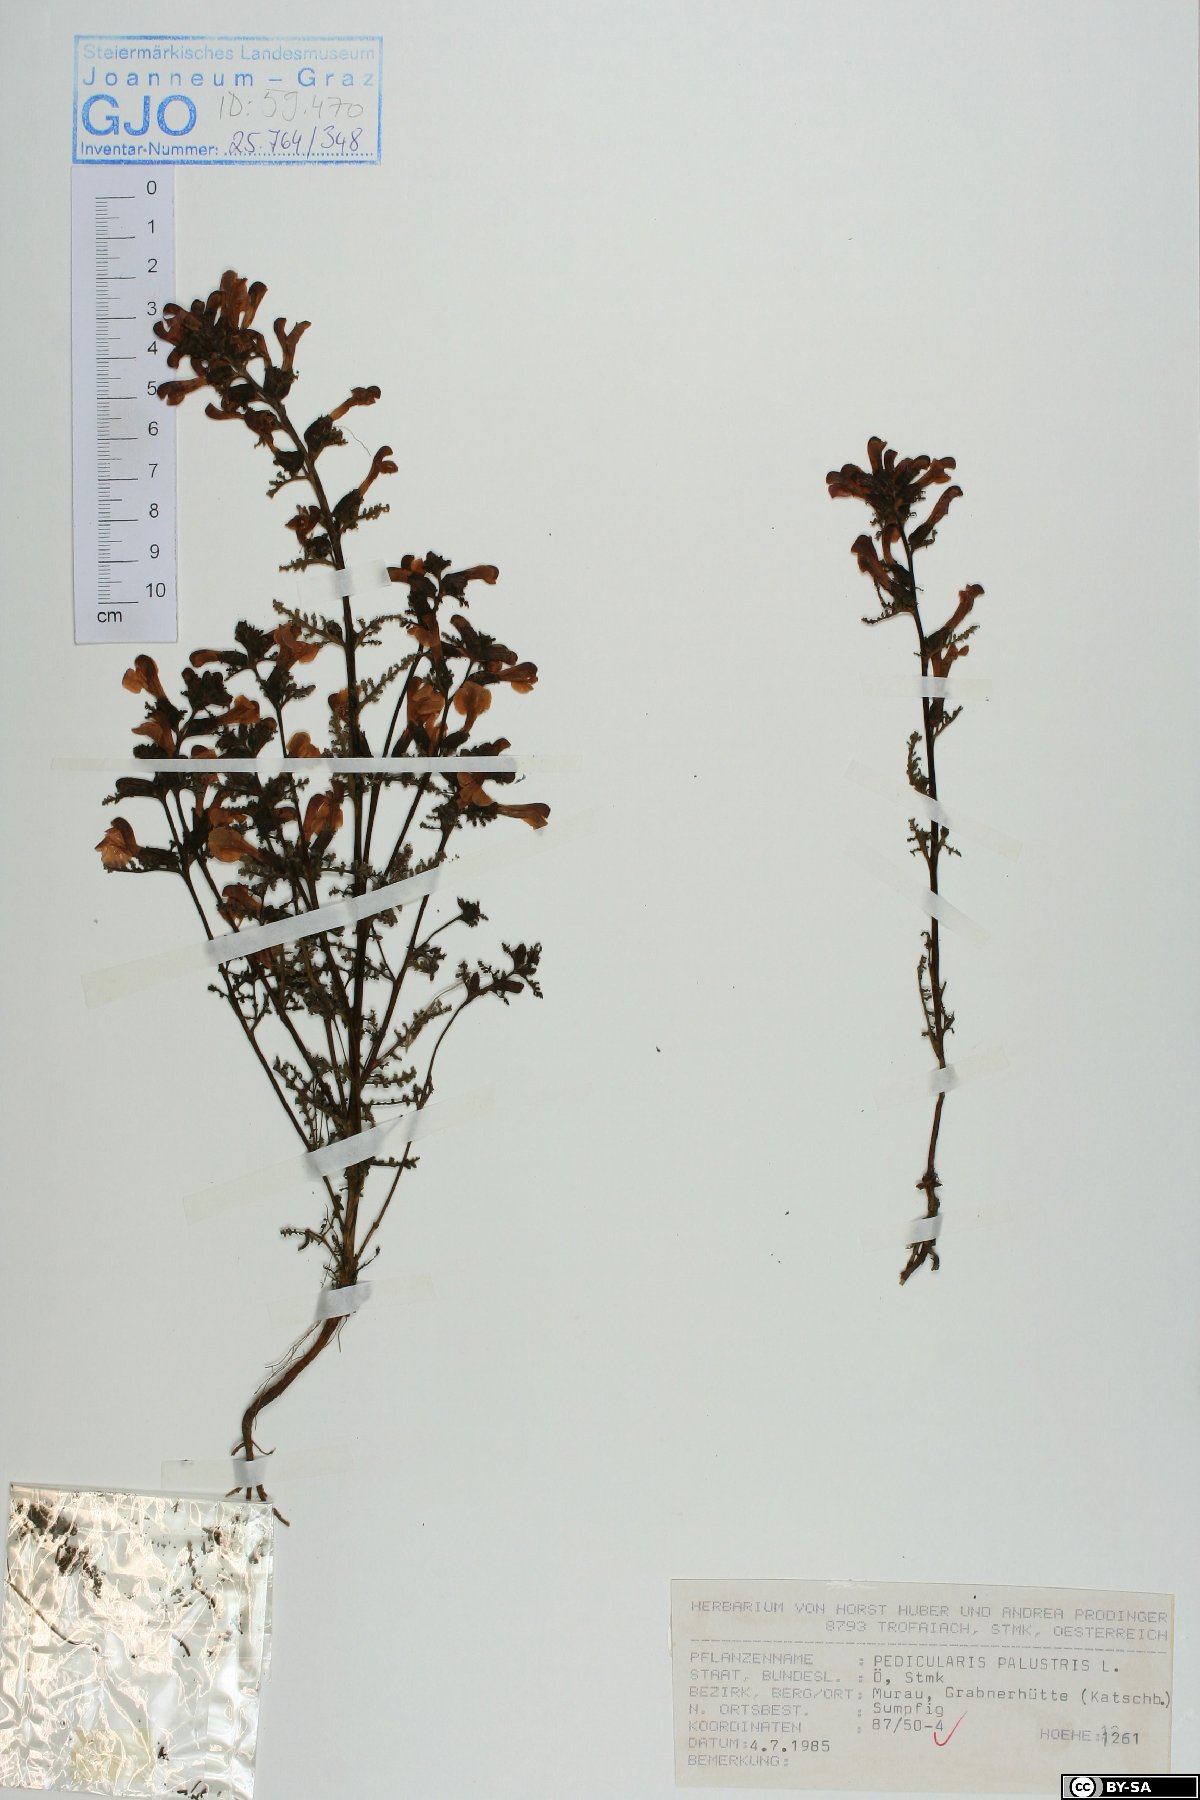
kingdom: Plantae
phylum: Tracheophyta
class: Magnoliopsida
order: Lamiales
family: Orobanchaceae
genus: Pedicularis
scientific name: Pedicularis palustris
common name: Marsh lousewort
